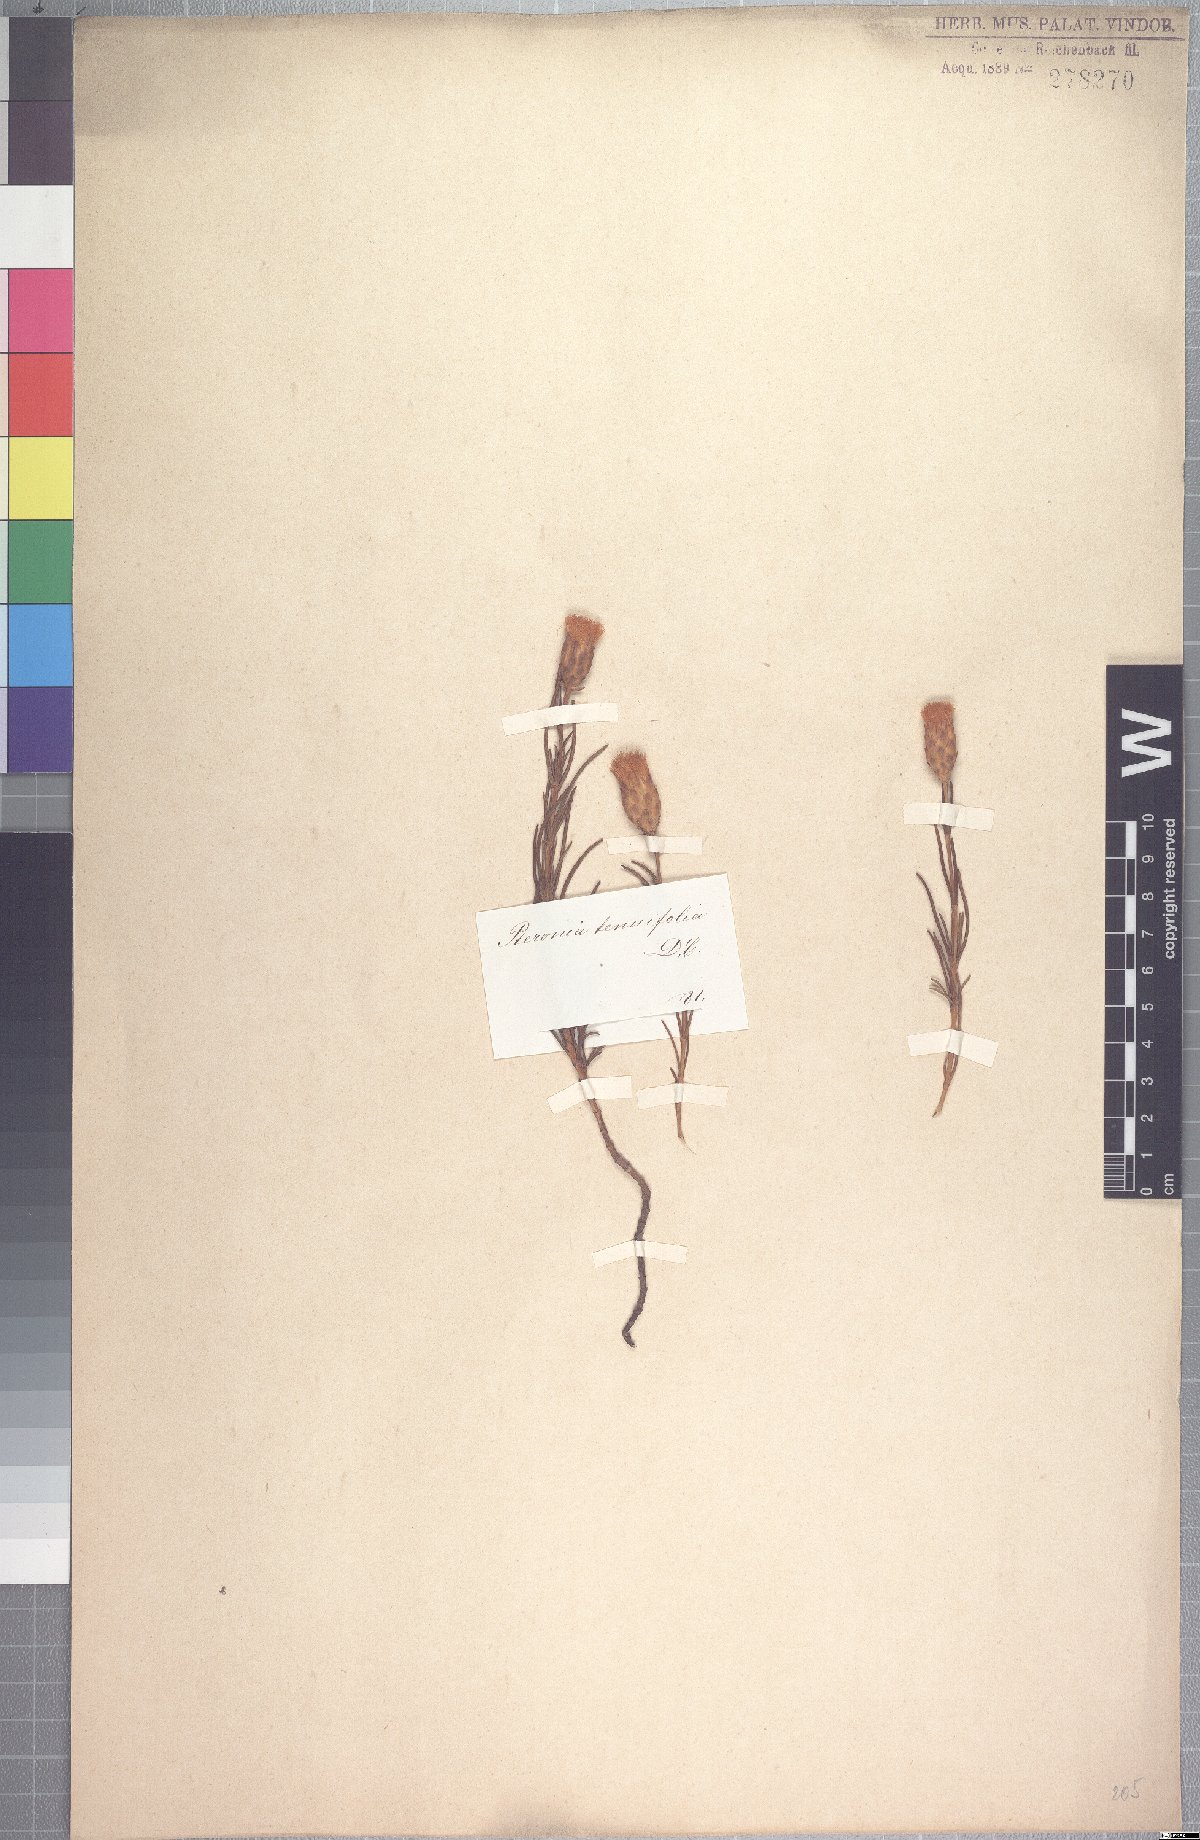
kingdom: Plantae
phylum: Tracheophyta
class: Magnoliopsida
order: Asterales
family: Asteraceae
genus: Pteronia
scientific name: Pteronia tenuifolia
